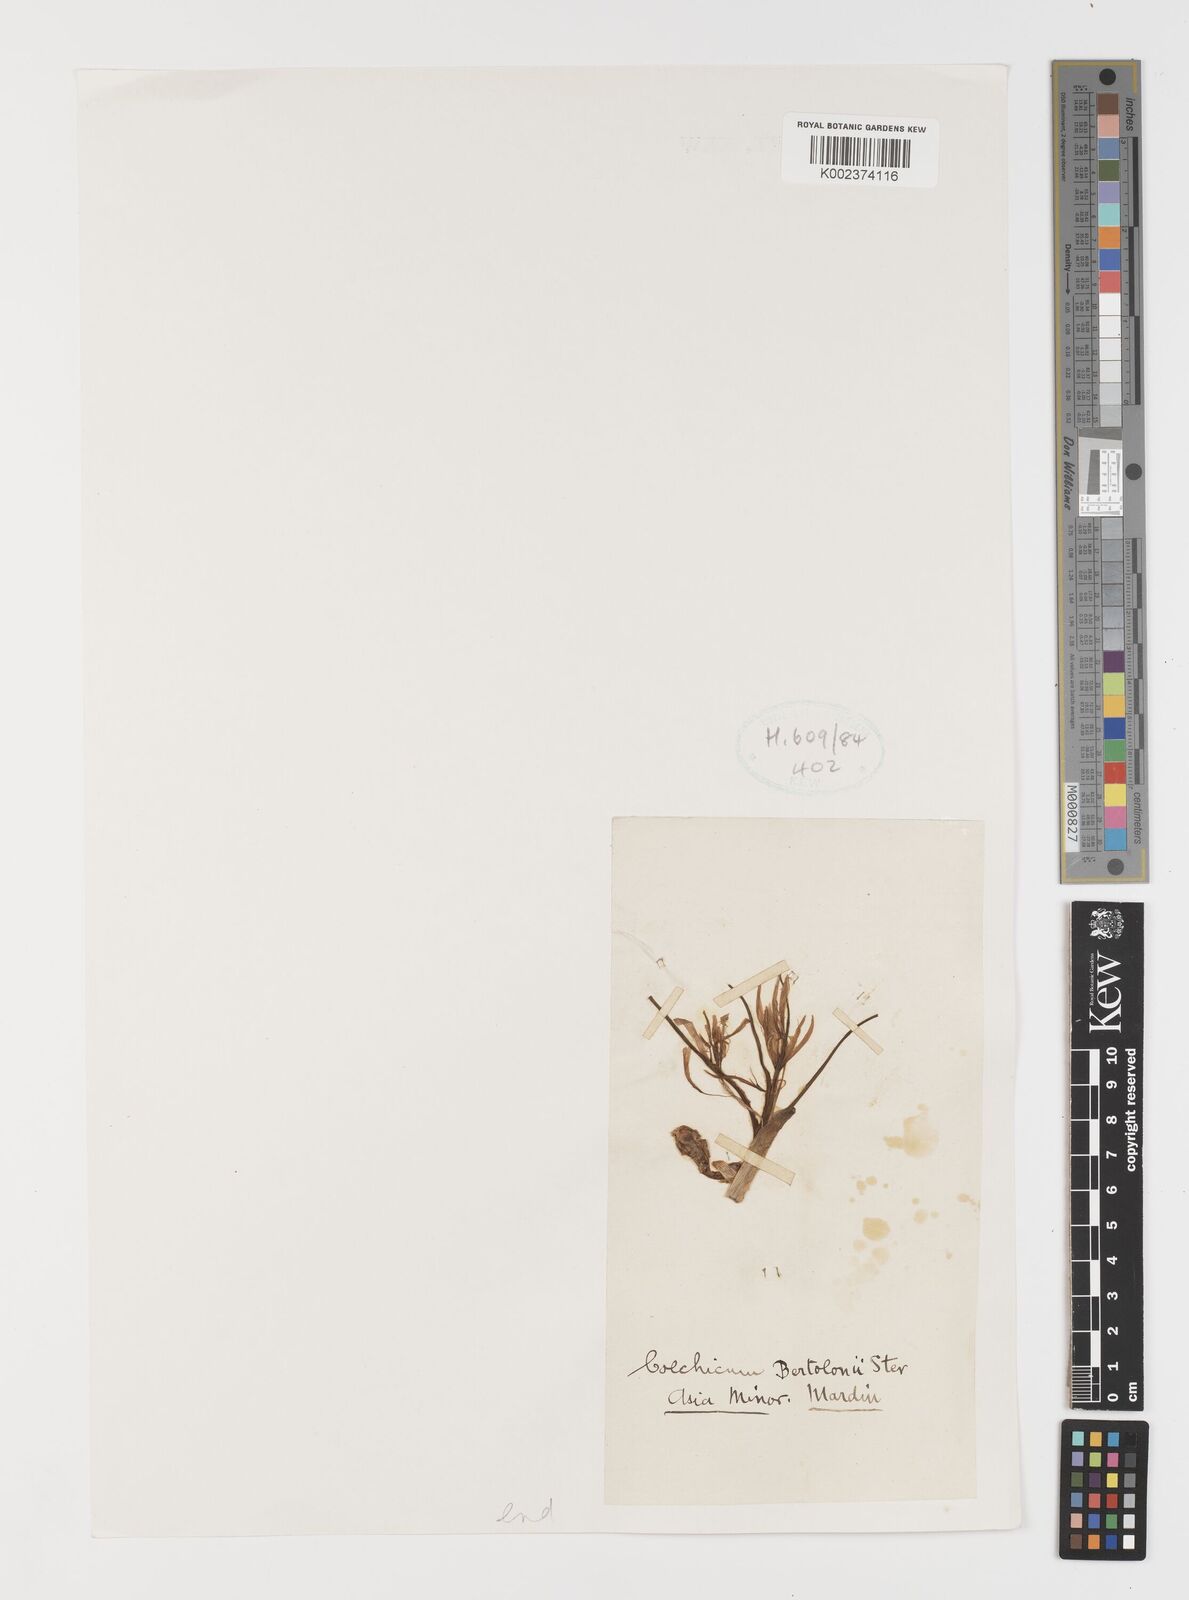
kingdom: Plantae
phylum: Tracheophyta
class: Liliopsida
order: Liliales
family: Colchicaceae
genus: Colchicum
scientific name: Colchicum cupanii
